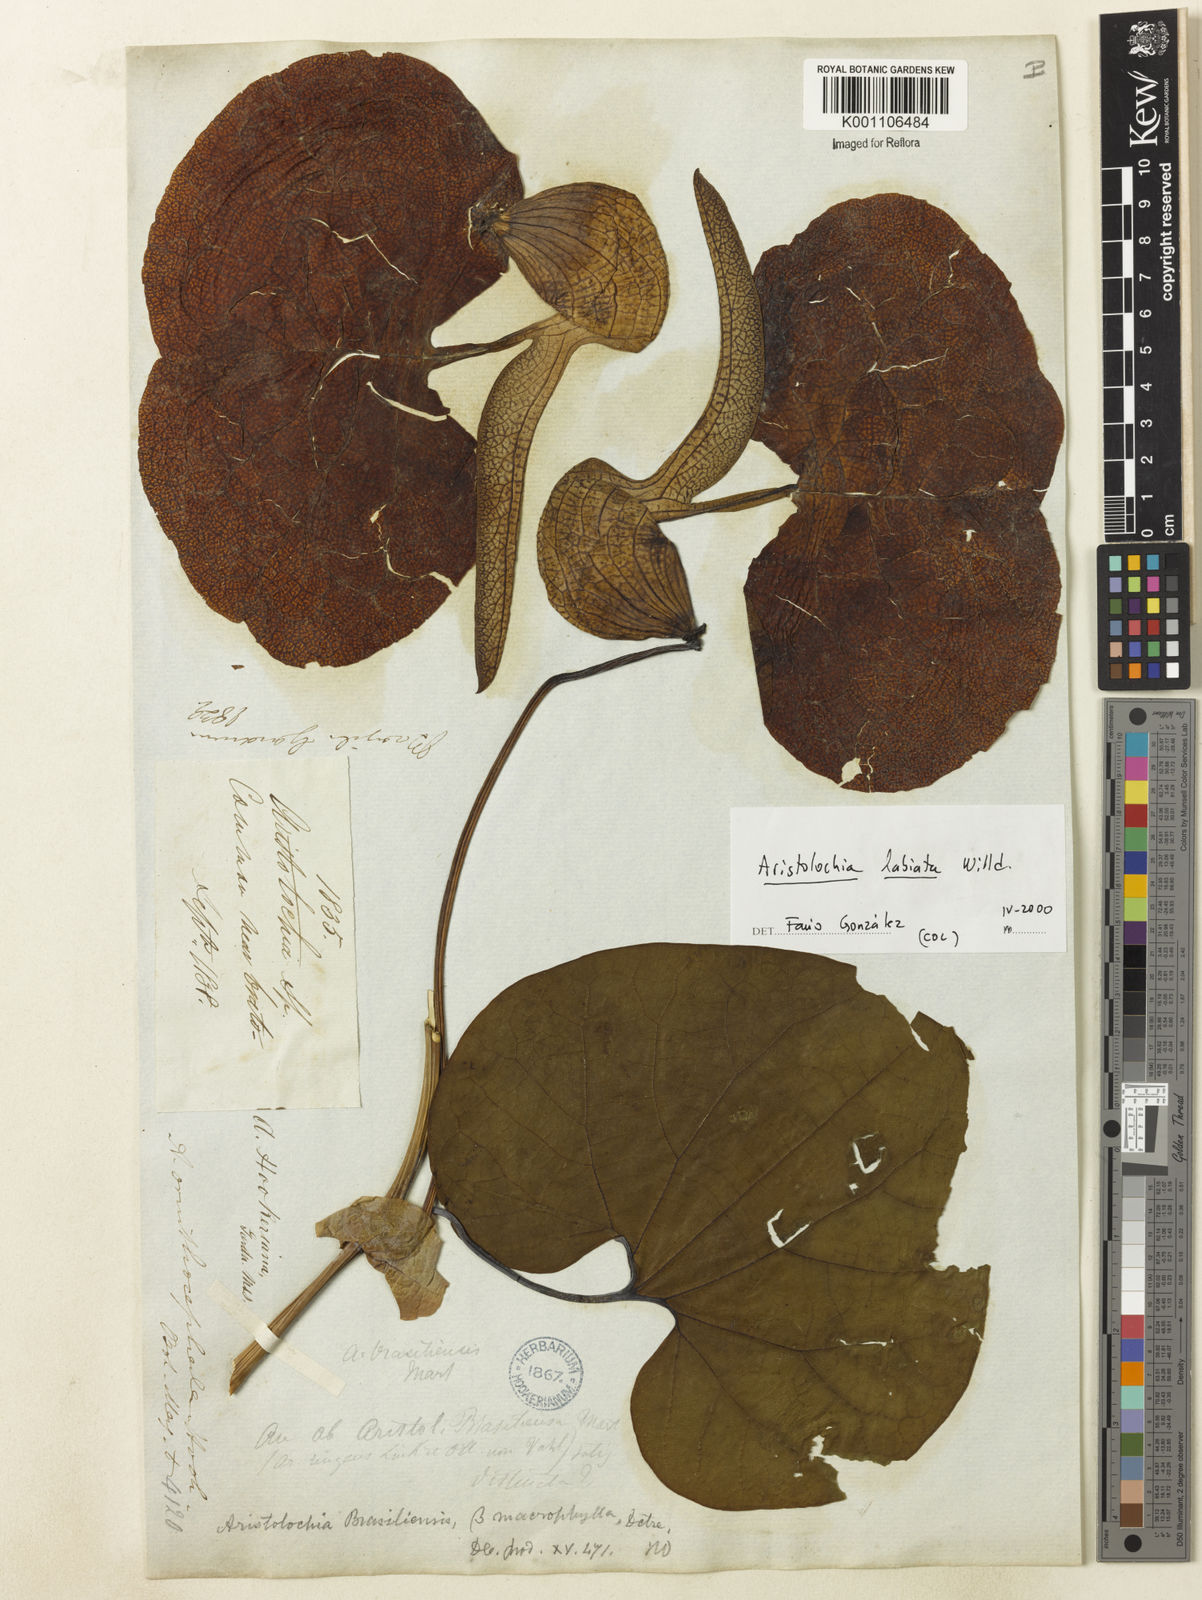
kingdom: Plantae
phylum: Tracheophyta
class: Magnoliopsida
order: Piperales
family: Aristolochiaceae
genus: Aristolochia
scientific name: Aristolochia labiata
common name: Mottled dutchman's pipe
